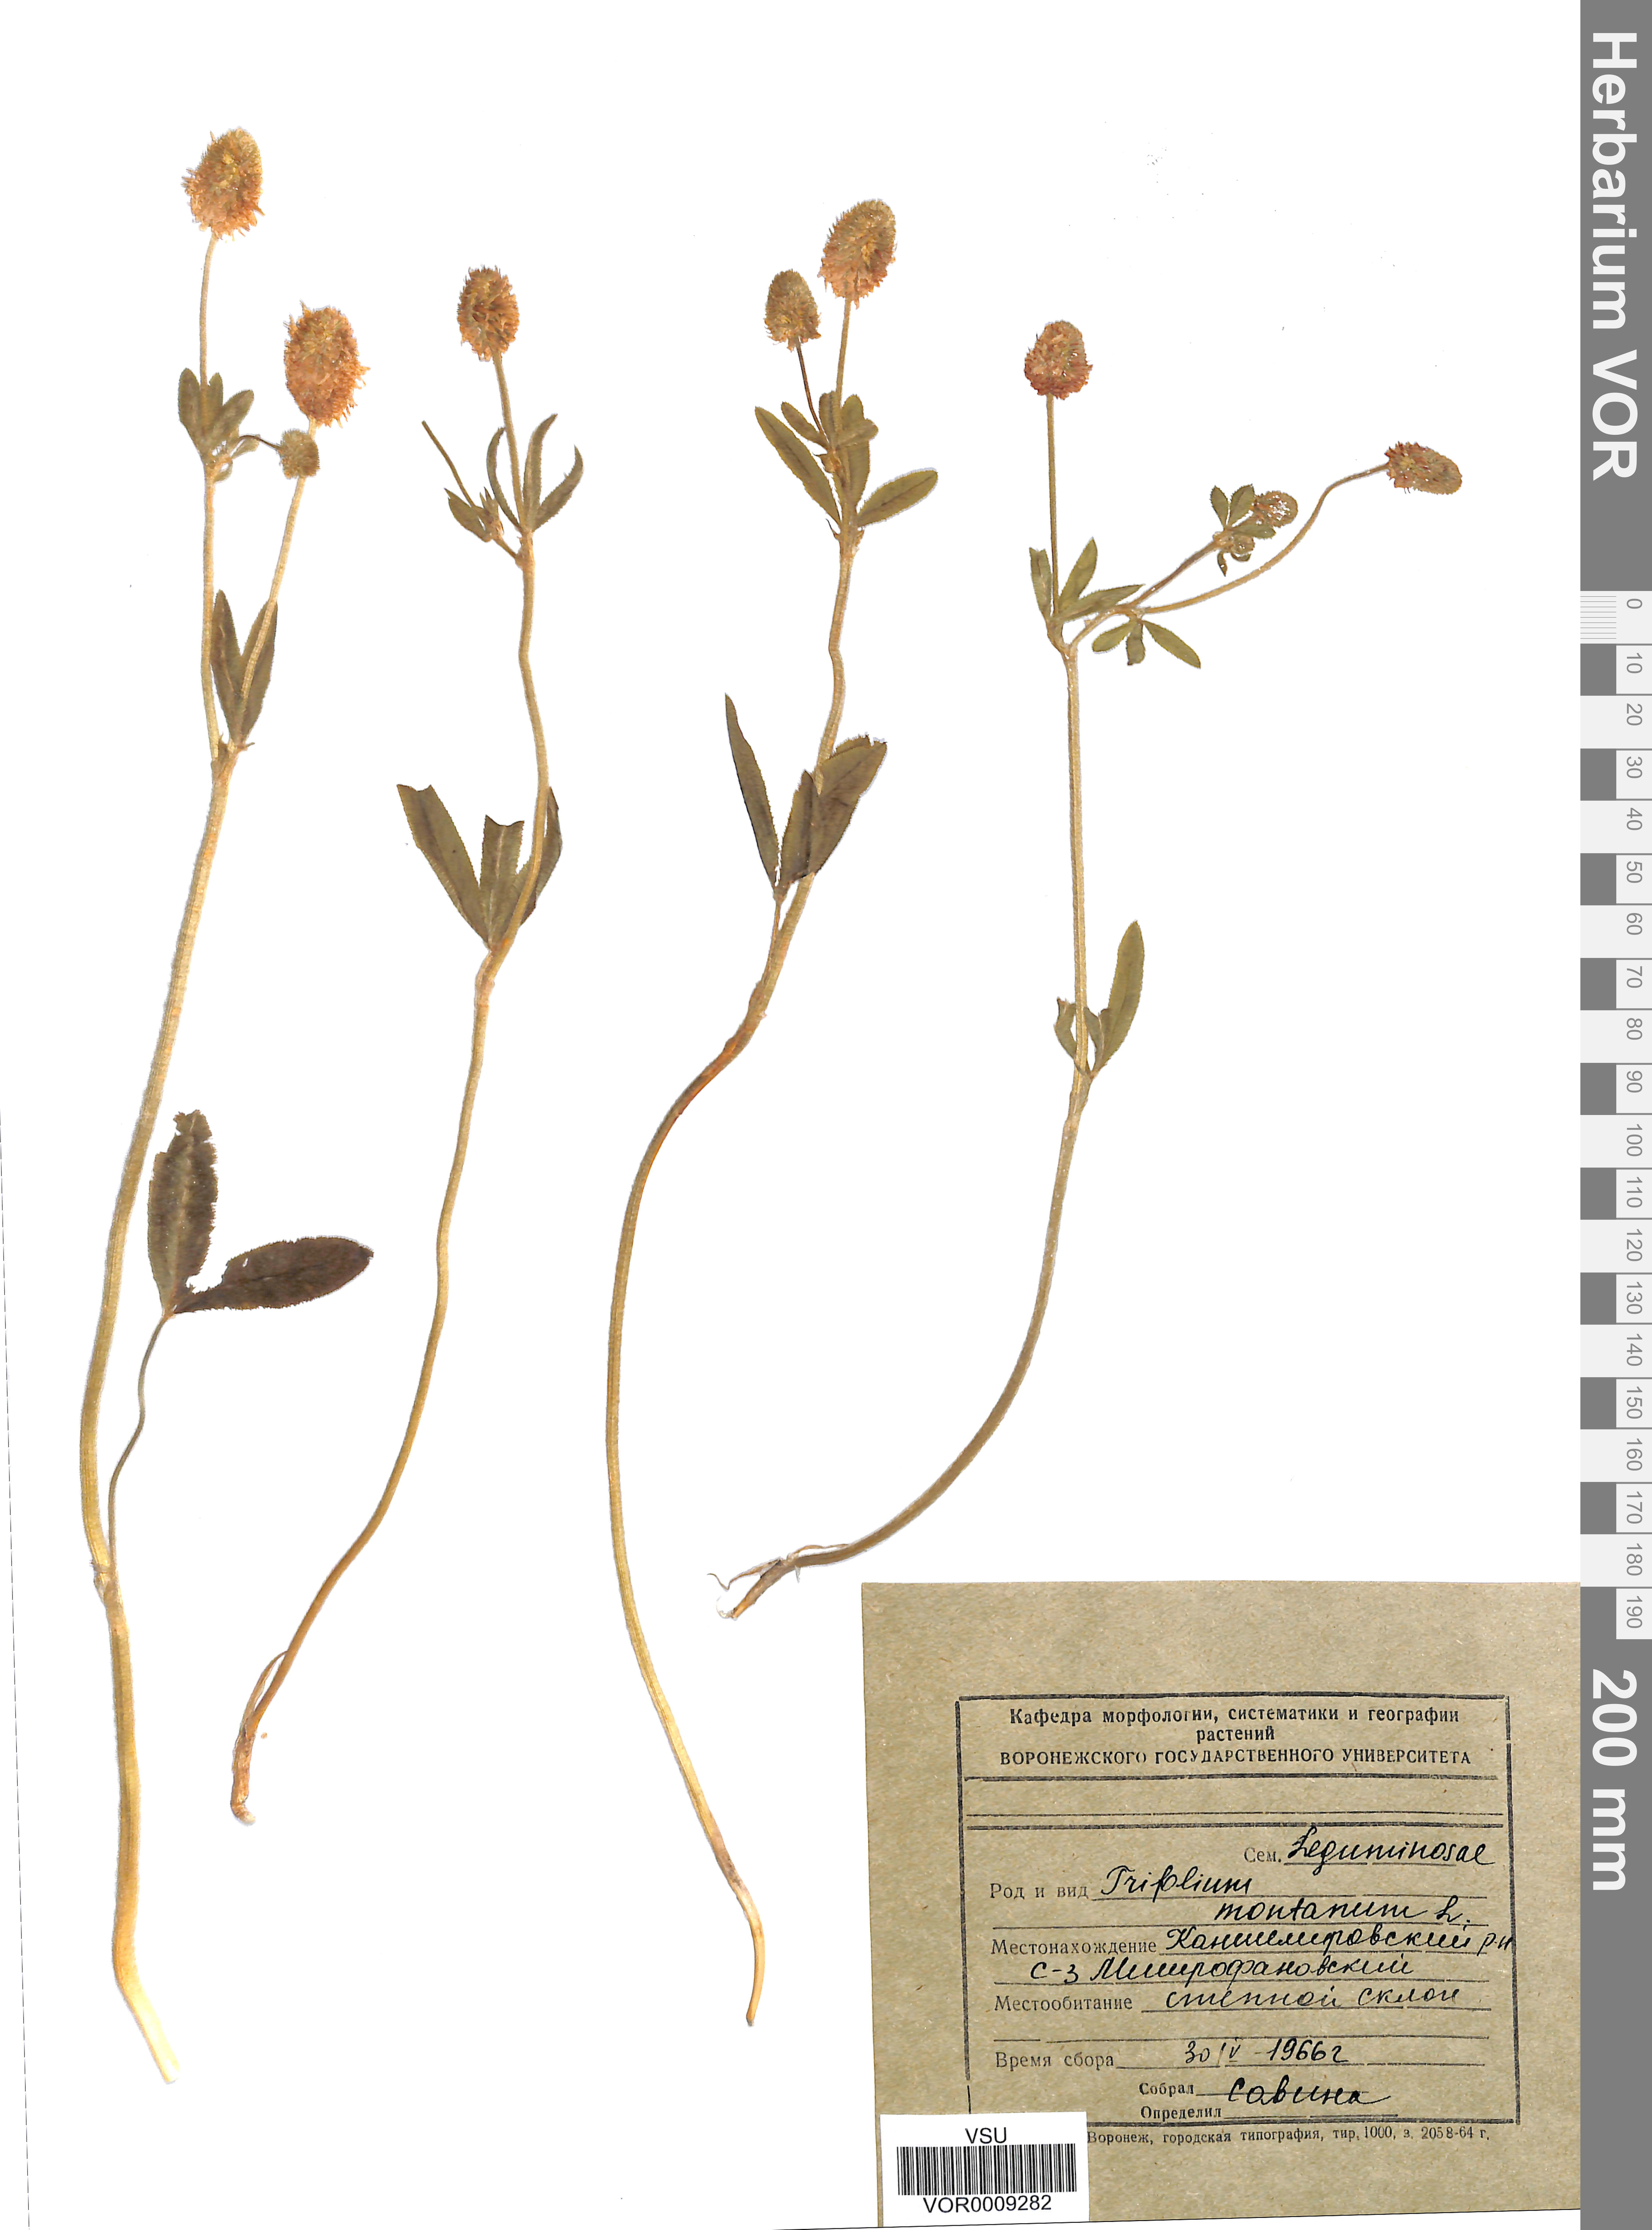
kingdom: Plantae
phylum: Tracheophyta
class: Magnoliopsida
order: Fabales
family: Fabaceae
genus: Trifolium
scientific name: Trifolium montanum
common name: Mountain clover
